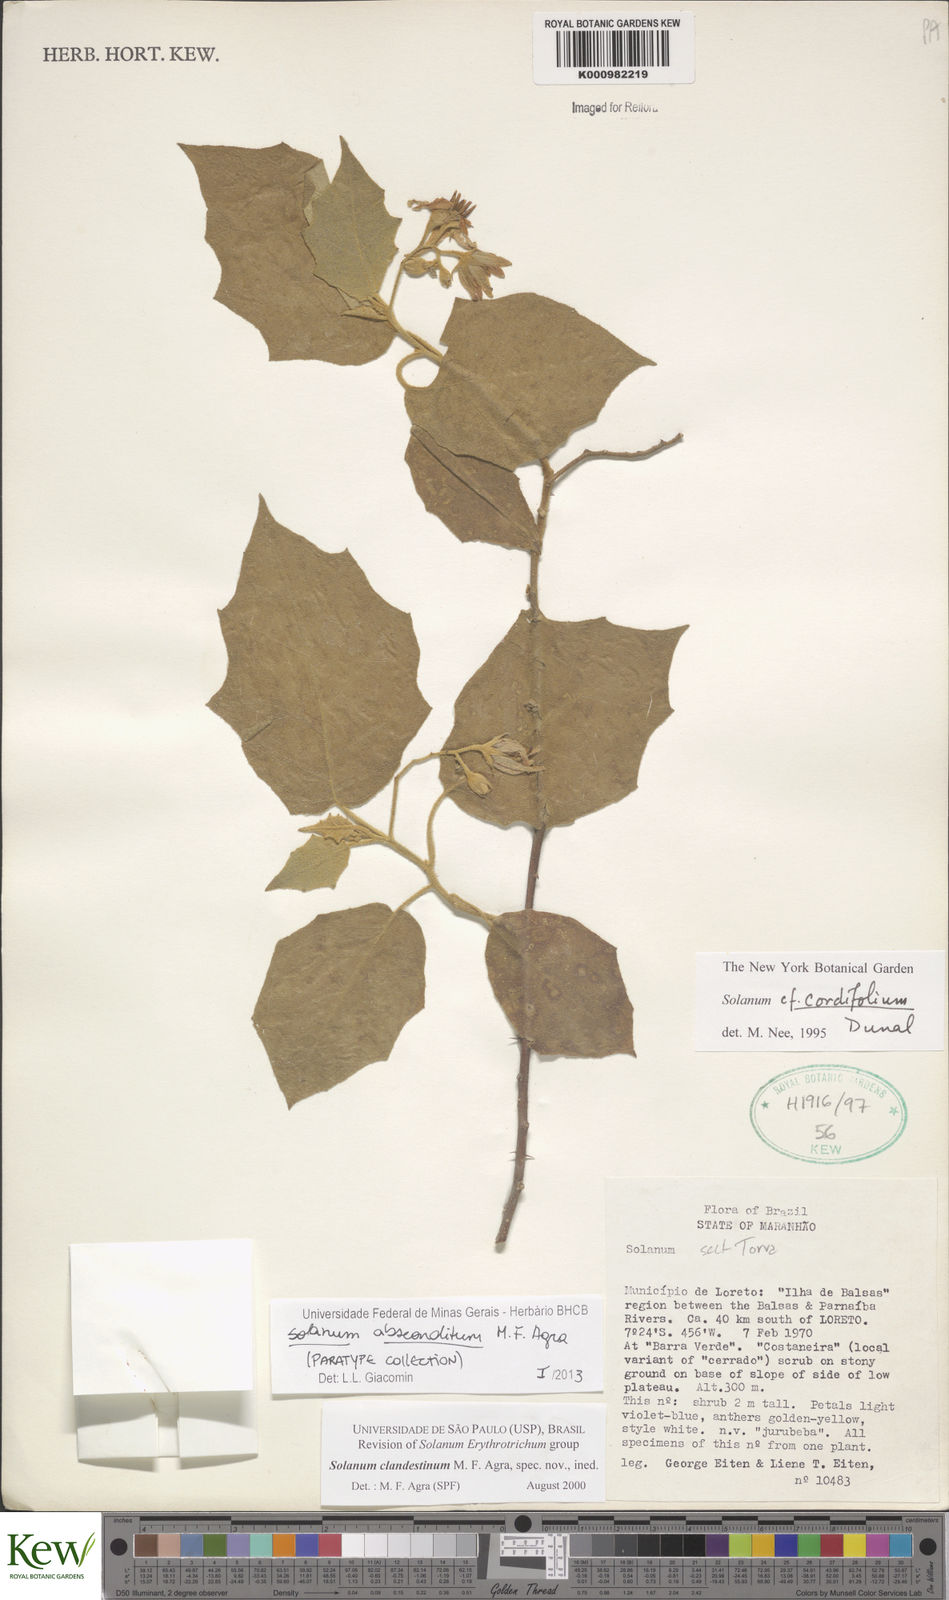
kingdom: Plantae
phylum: Tracheophyta
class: Magnoliopsida
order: Solanales
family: Solanaceae
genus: Solanum
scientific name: Solanum absconditum
